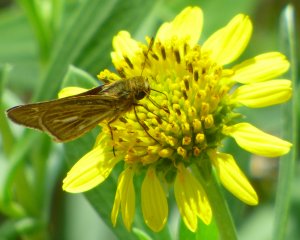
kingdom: Animalia
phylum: Arthropoda
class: Insecta
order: Lepidoptera
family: Hesperiidae
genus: Panoquina
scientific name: Panoquina panoquin
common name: Salt Marsh Skipper
